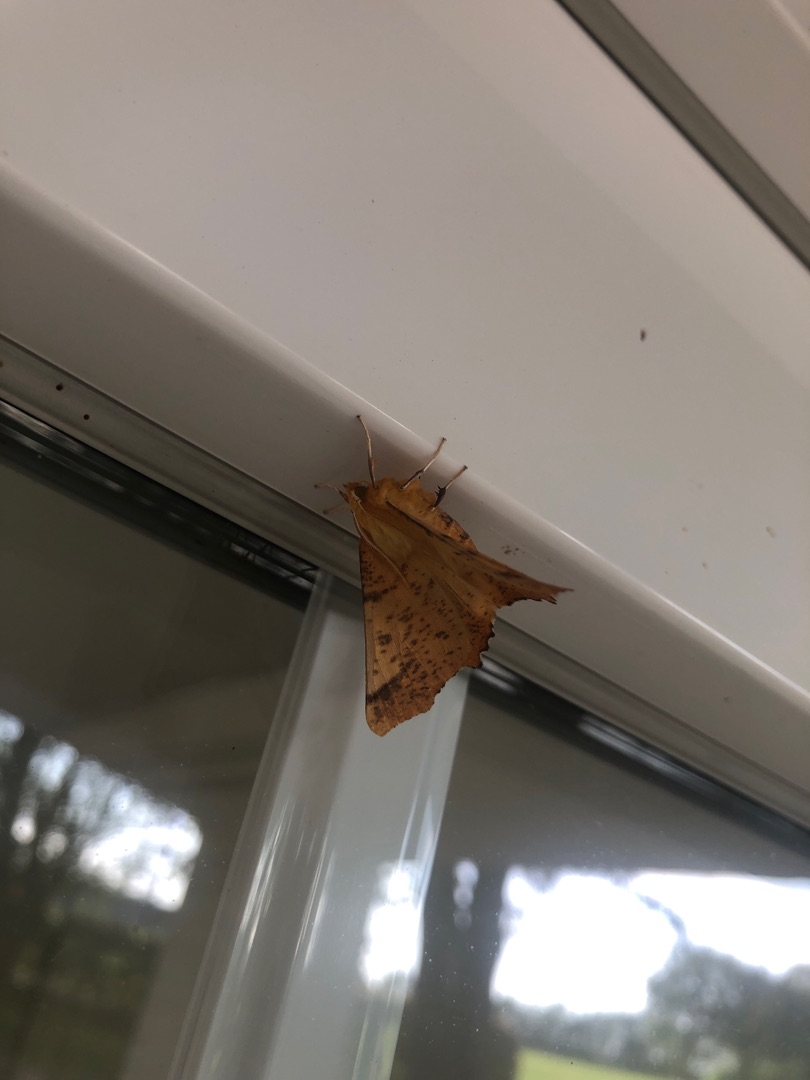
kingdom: Animalia
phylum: Arthropoda
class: Insecta
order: Lepidoptera
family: Geometridae
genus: Ennomos
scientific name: Ennomos autumnaria
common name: Stor tandmåler
